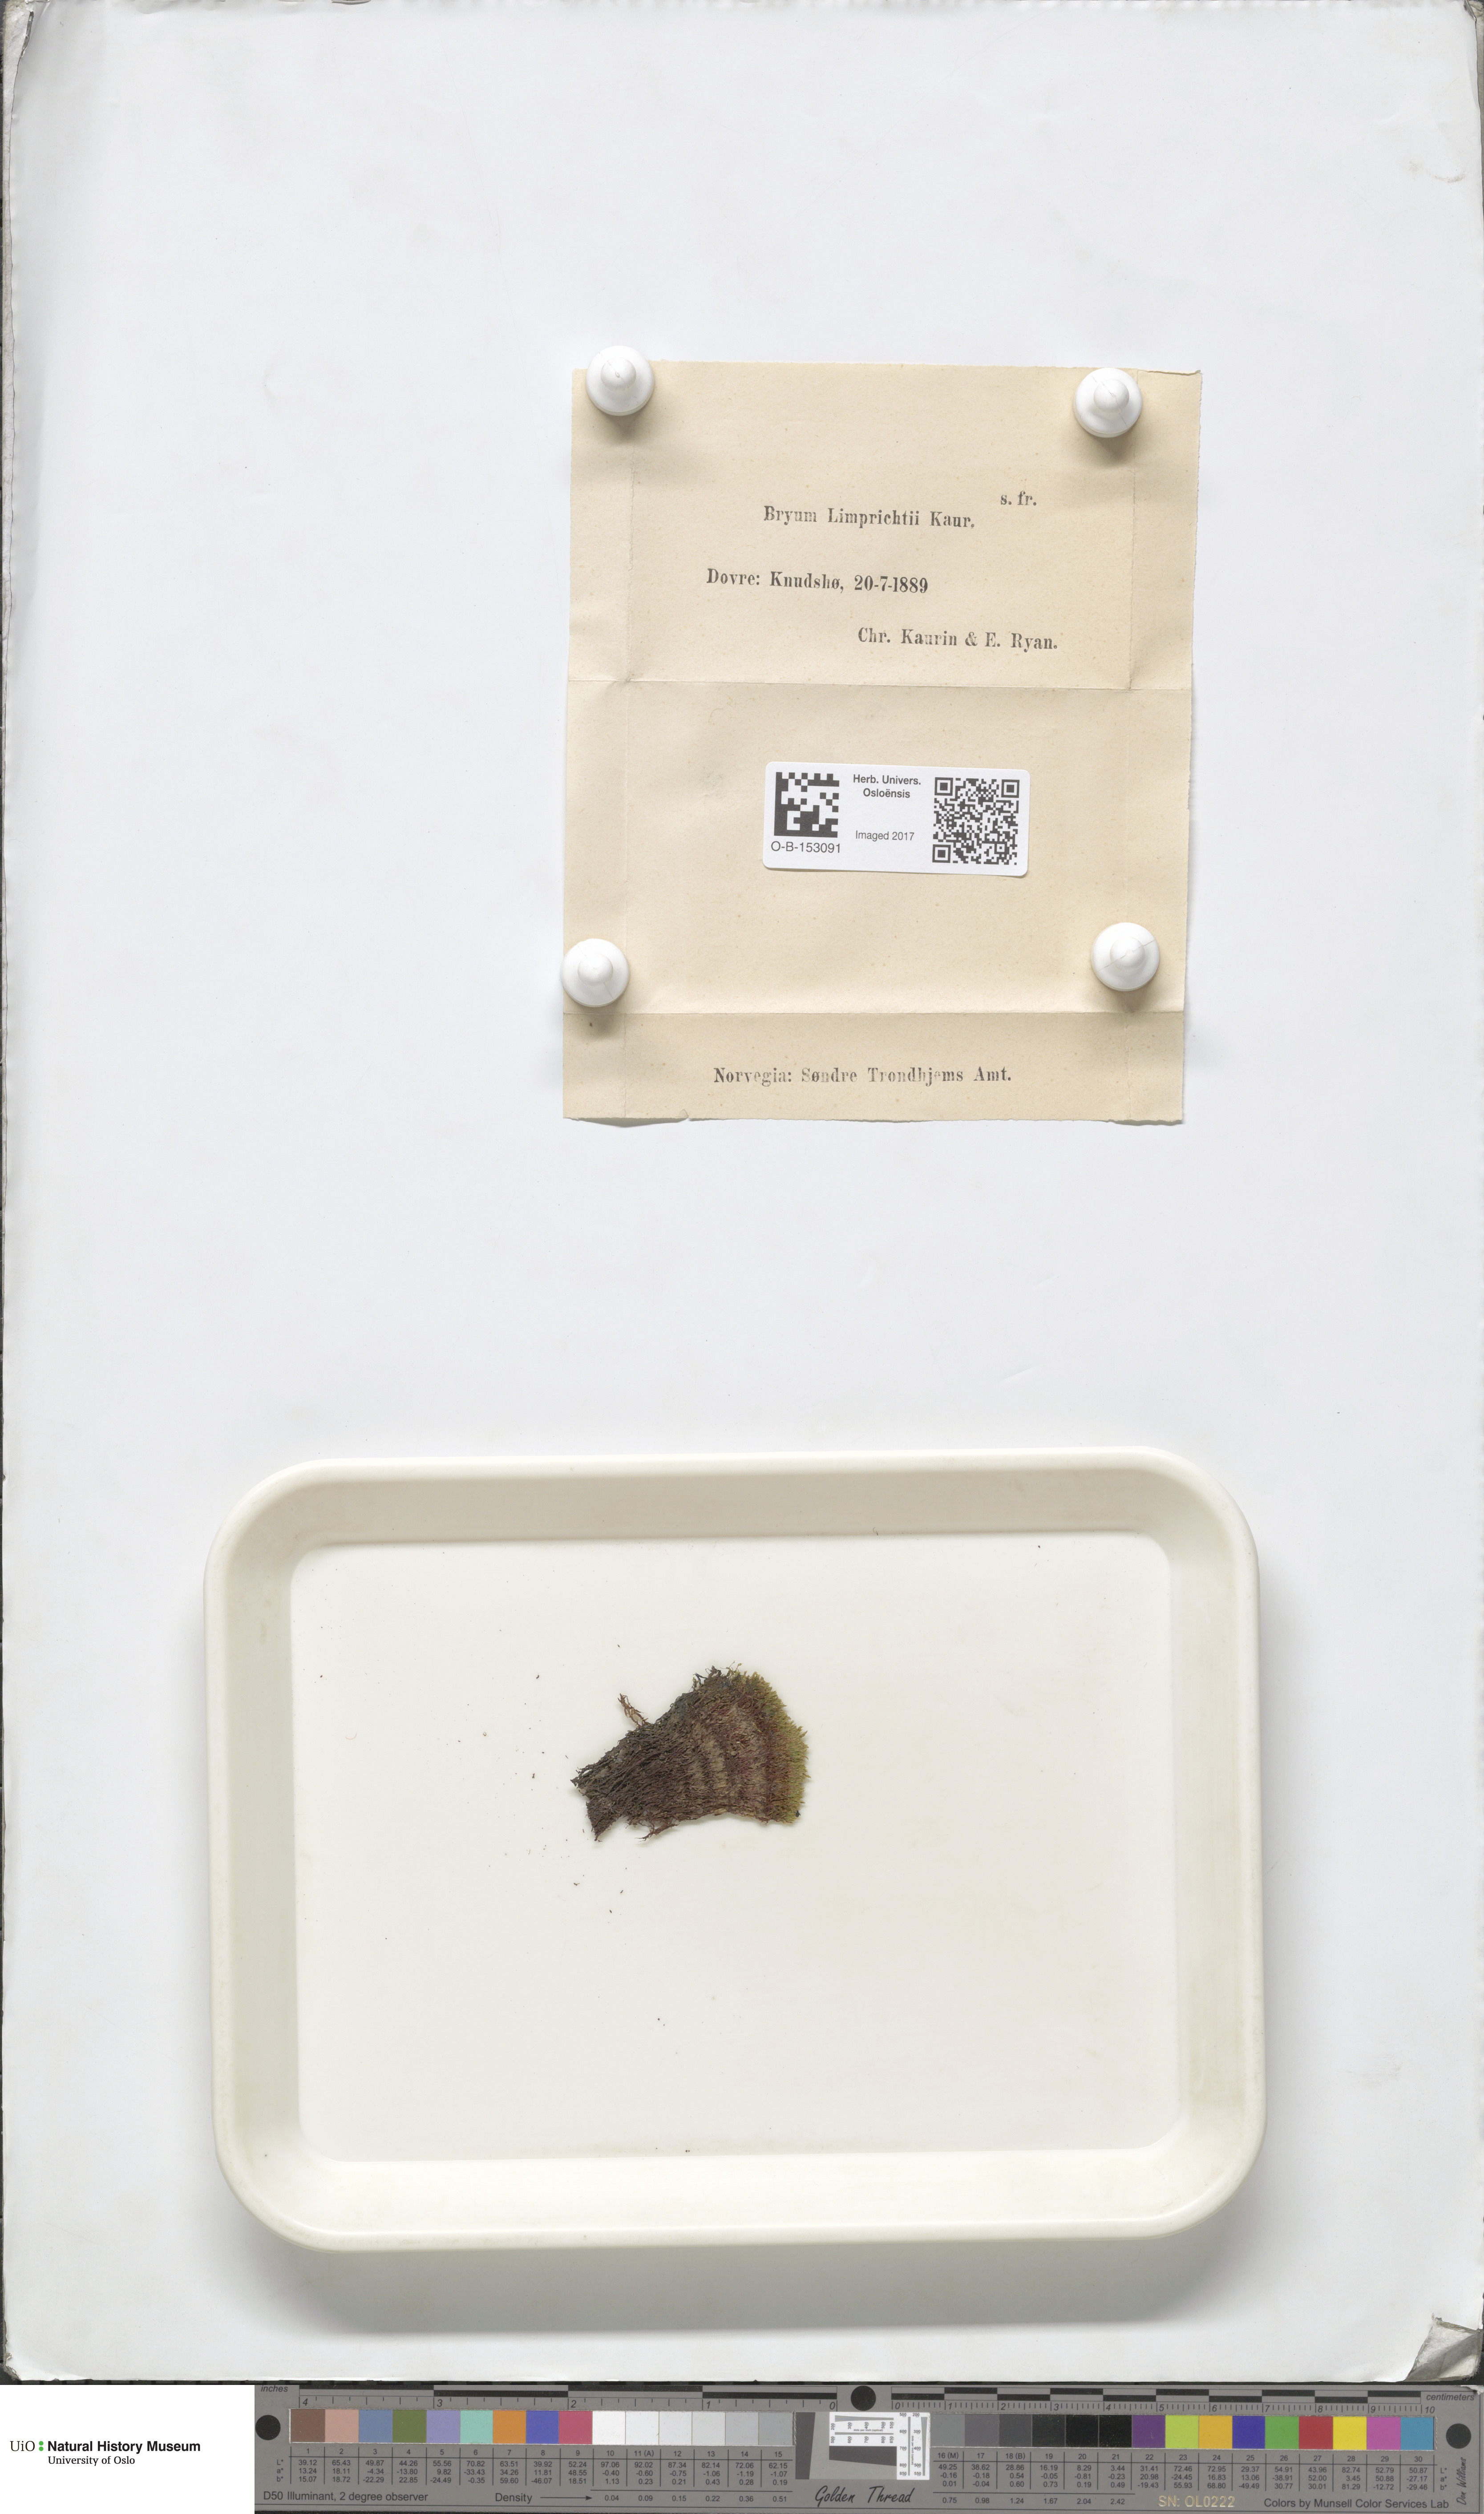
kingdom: Plantae
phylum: Bryophyta
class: Bryopsida
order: Bryales
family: Bryaceae
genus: Ptychostomum
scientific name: Ptychostomum inclinatum
